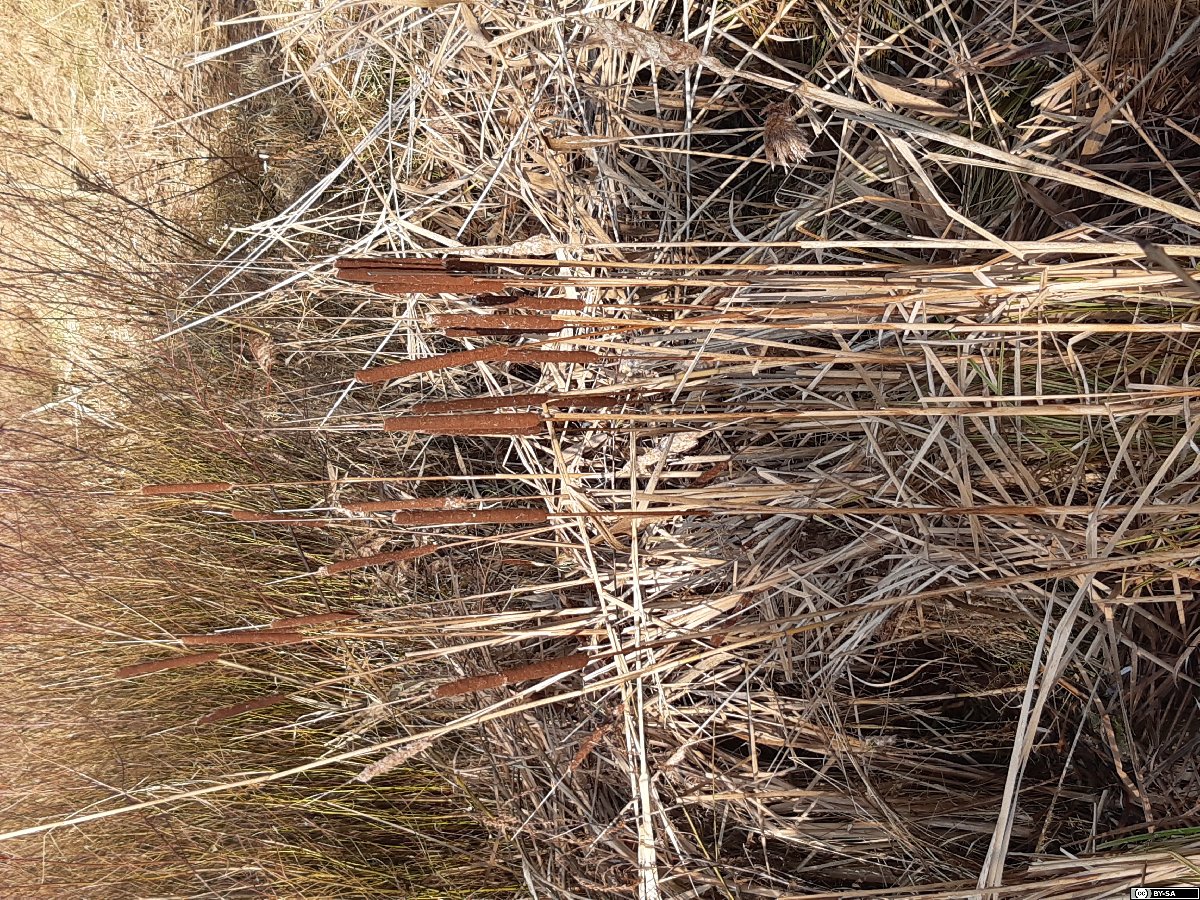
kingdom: Plantae
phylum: Tracheophyta
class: Liliopsida
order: Poales
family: Typhaceae
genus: Typha
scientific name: Typha angustifolia
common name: Lesser bulrush
